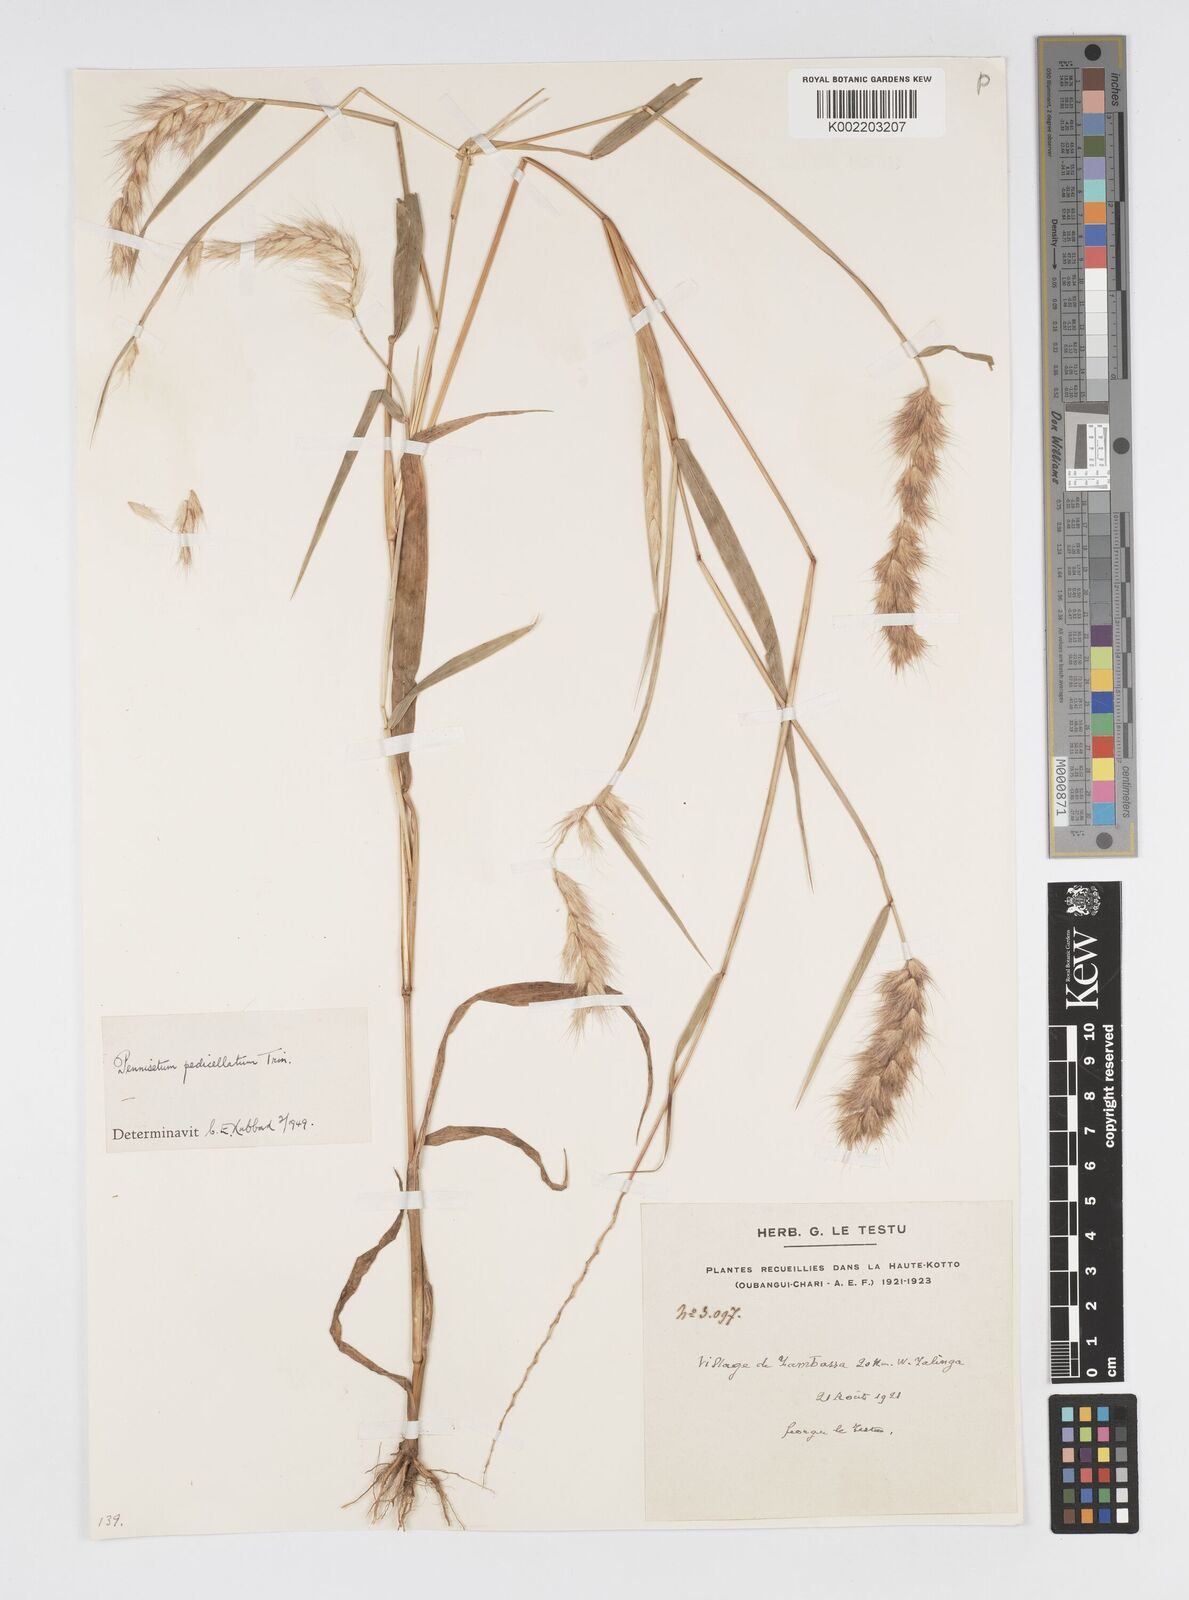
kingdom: Plantae
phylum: Tracheophyta
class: Liliopsida
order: Poales
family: Poaceae
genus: Cenchrus
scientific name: Cenchrus pedicellatus
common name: Hairy fountain grass
